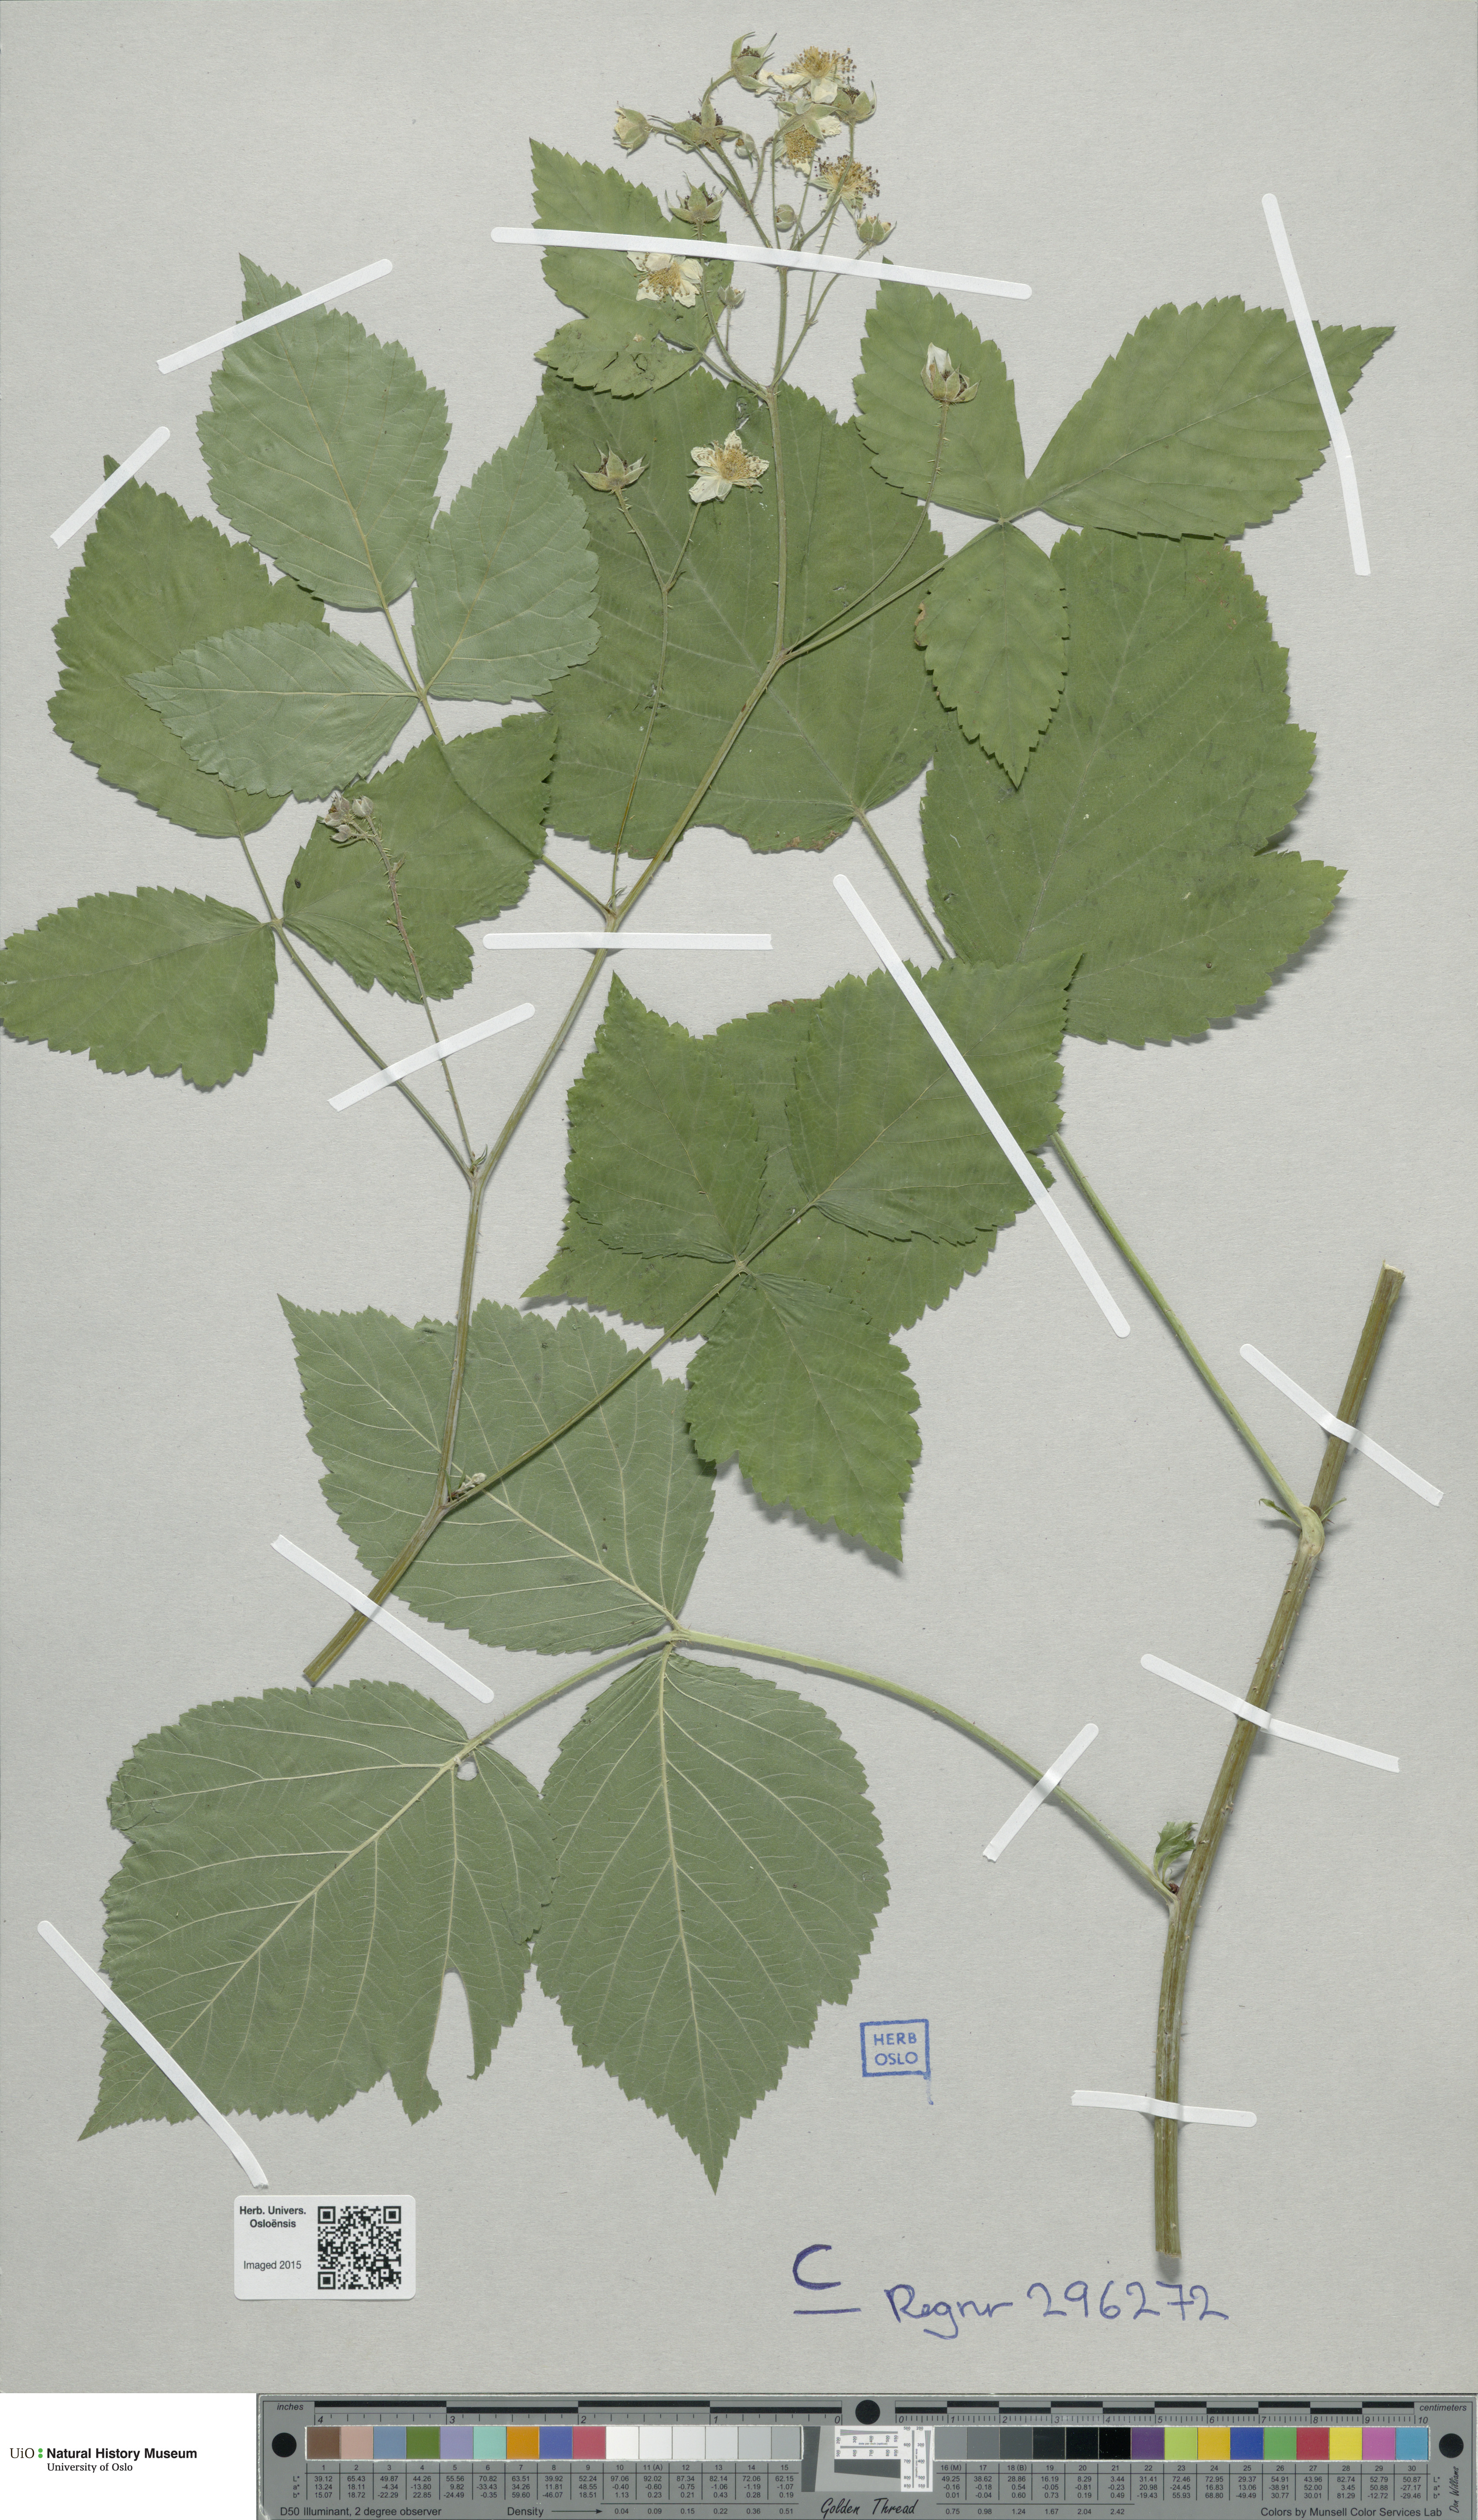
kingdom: Plantae
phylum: Tracheophyta
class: Magnoliopsida
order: Rosales
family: Rosaceae
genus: Rubus
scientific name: Rubus
